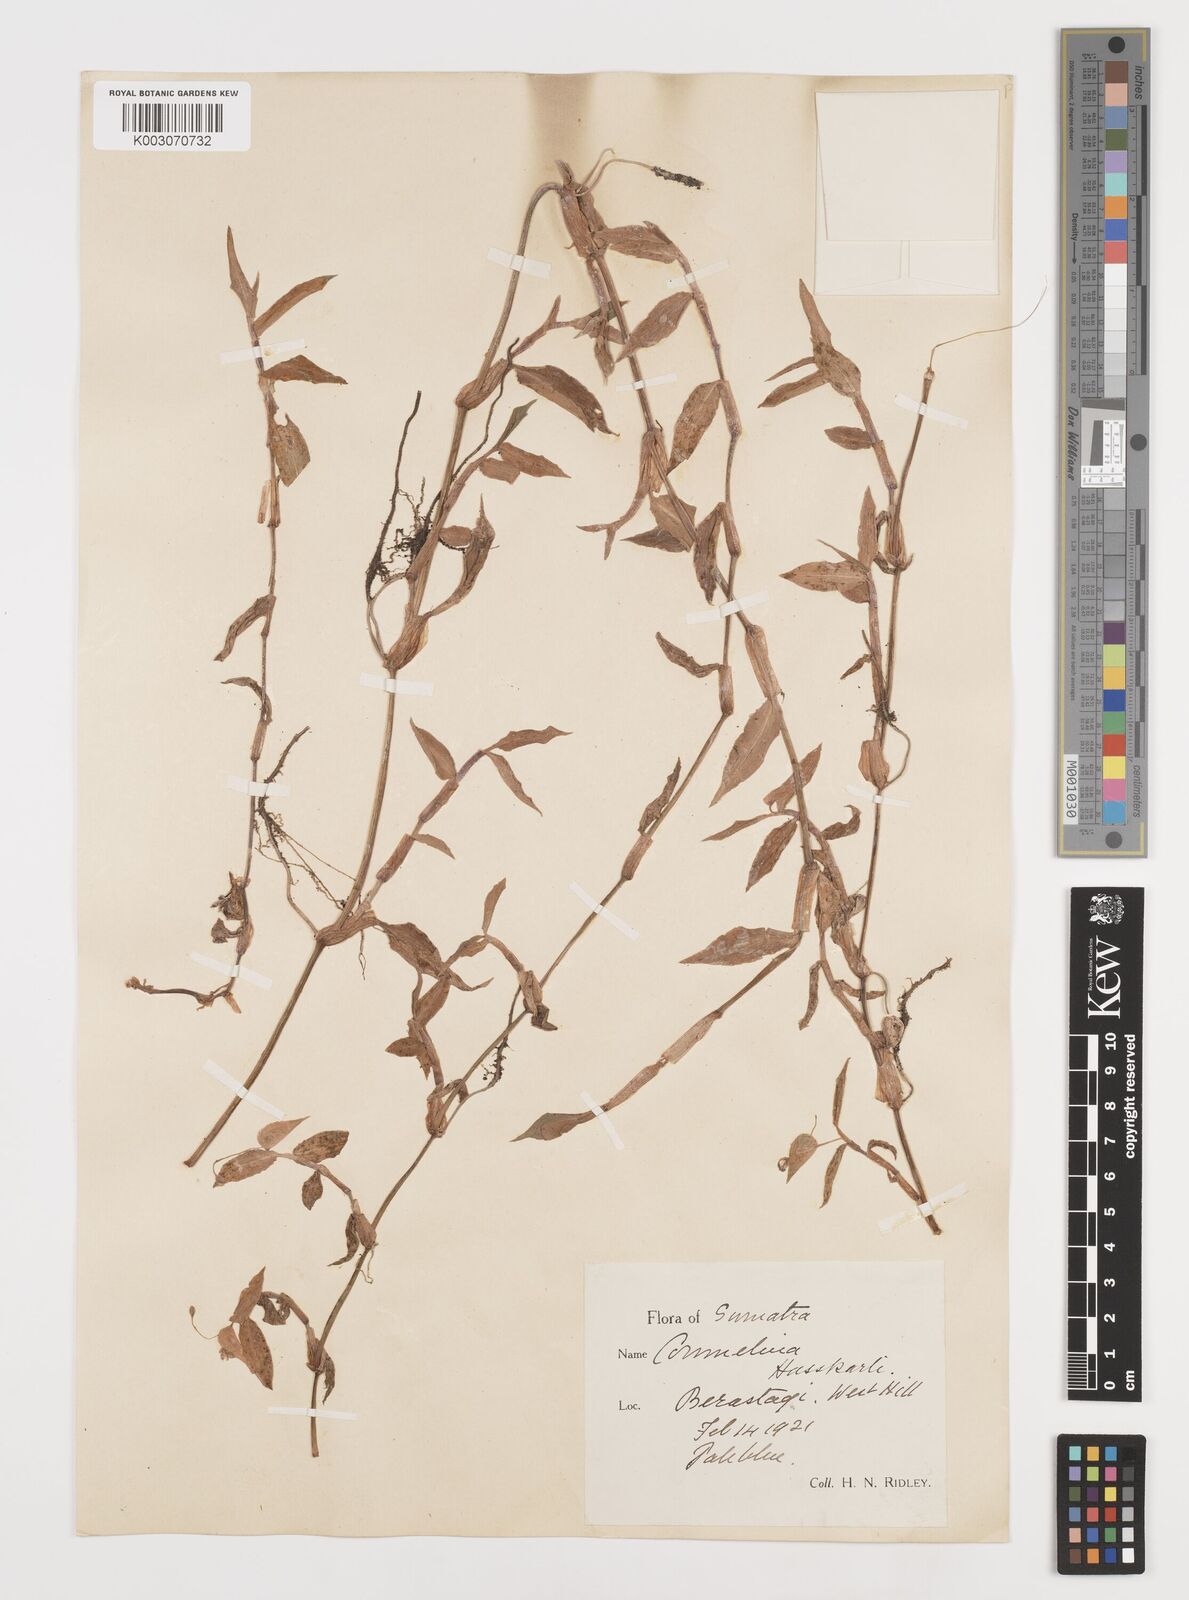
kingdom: Plantae
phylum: Tracheophyta
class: Liliopsida
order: Commelinales
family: Commelinaceae
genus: Commelina
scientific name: Commelina caroliniana
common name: Carolina dayflower
